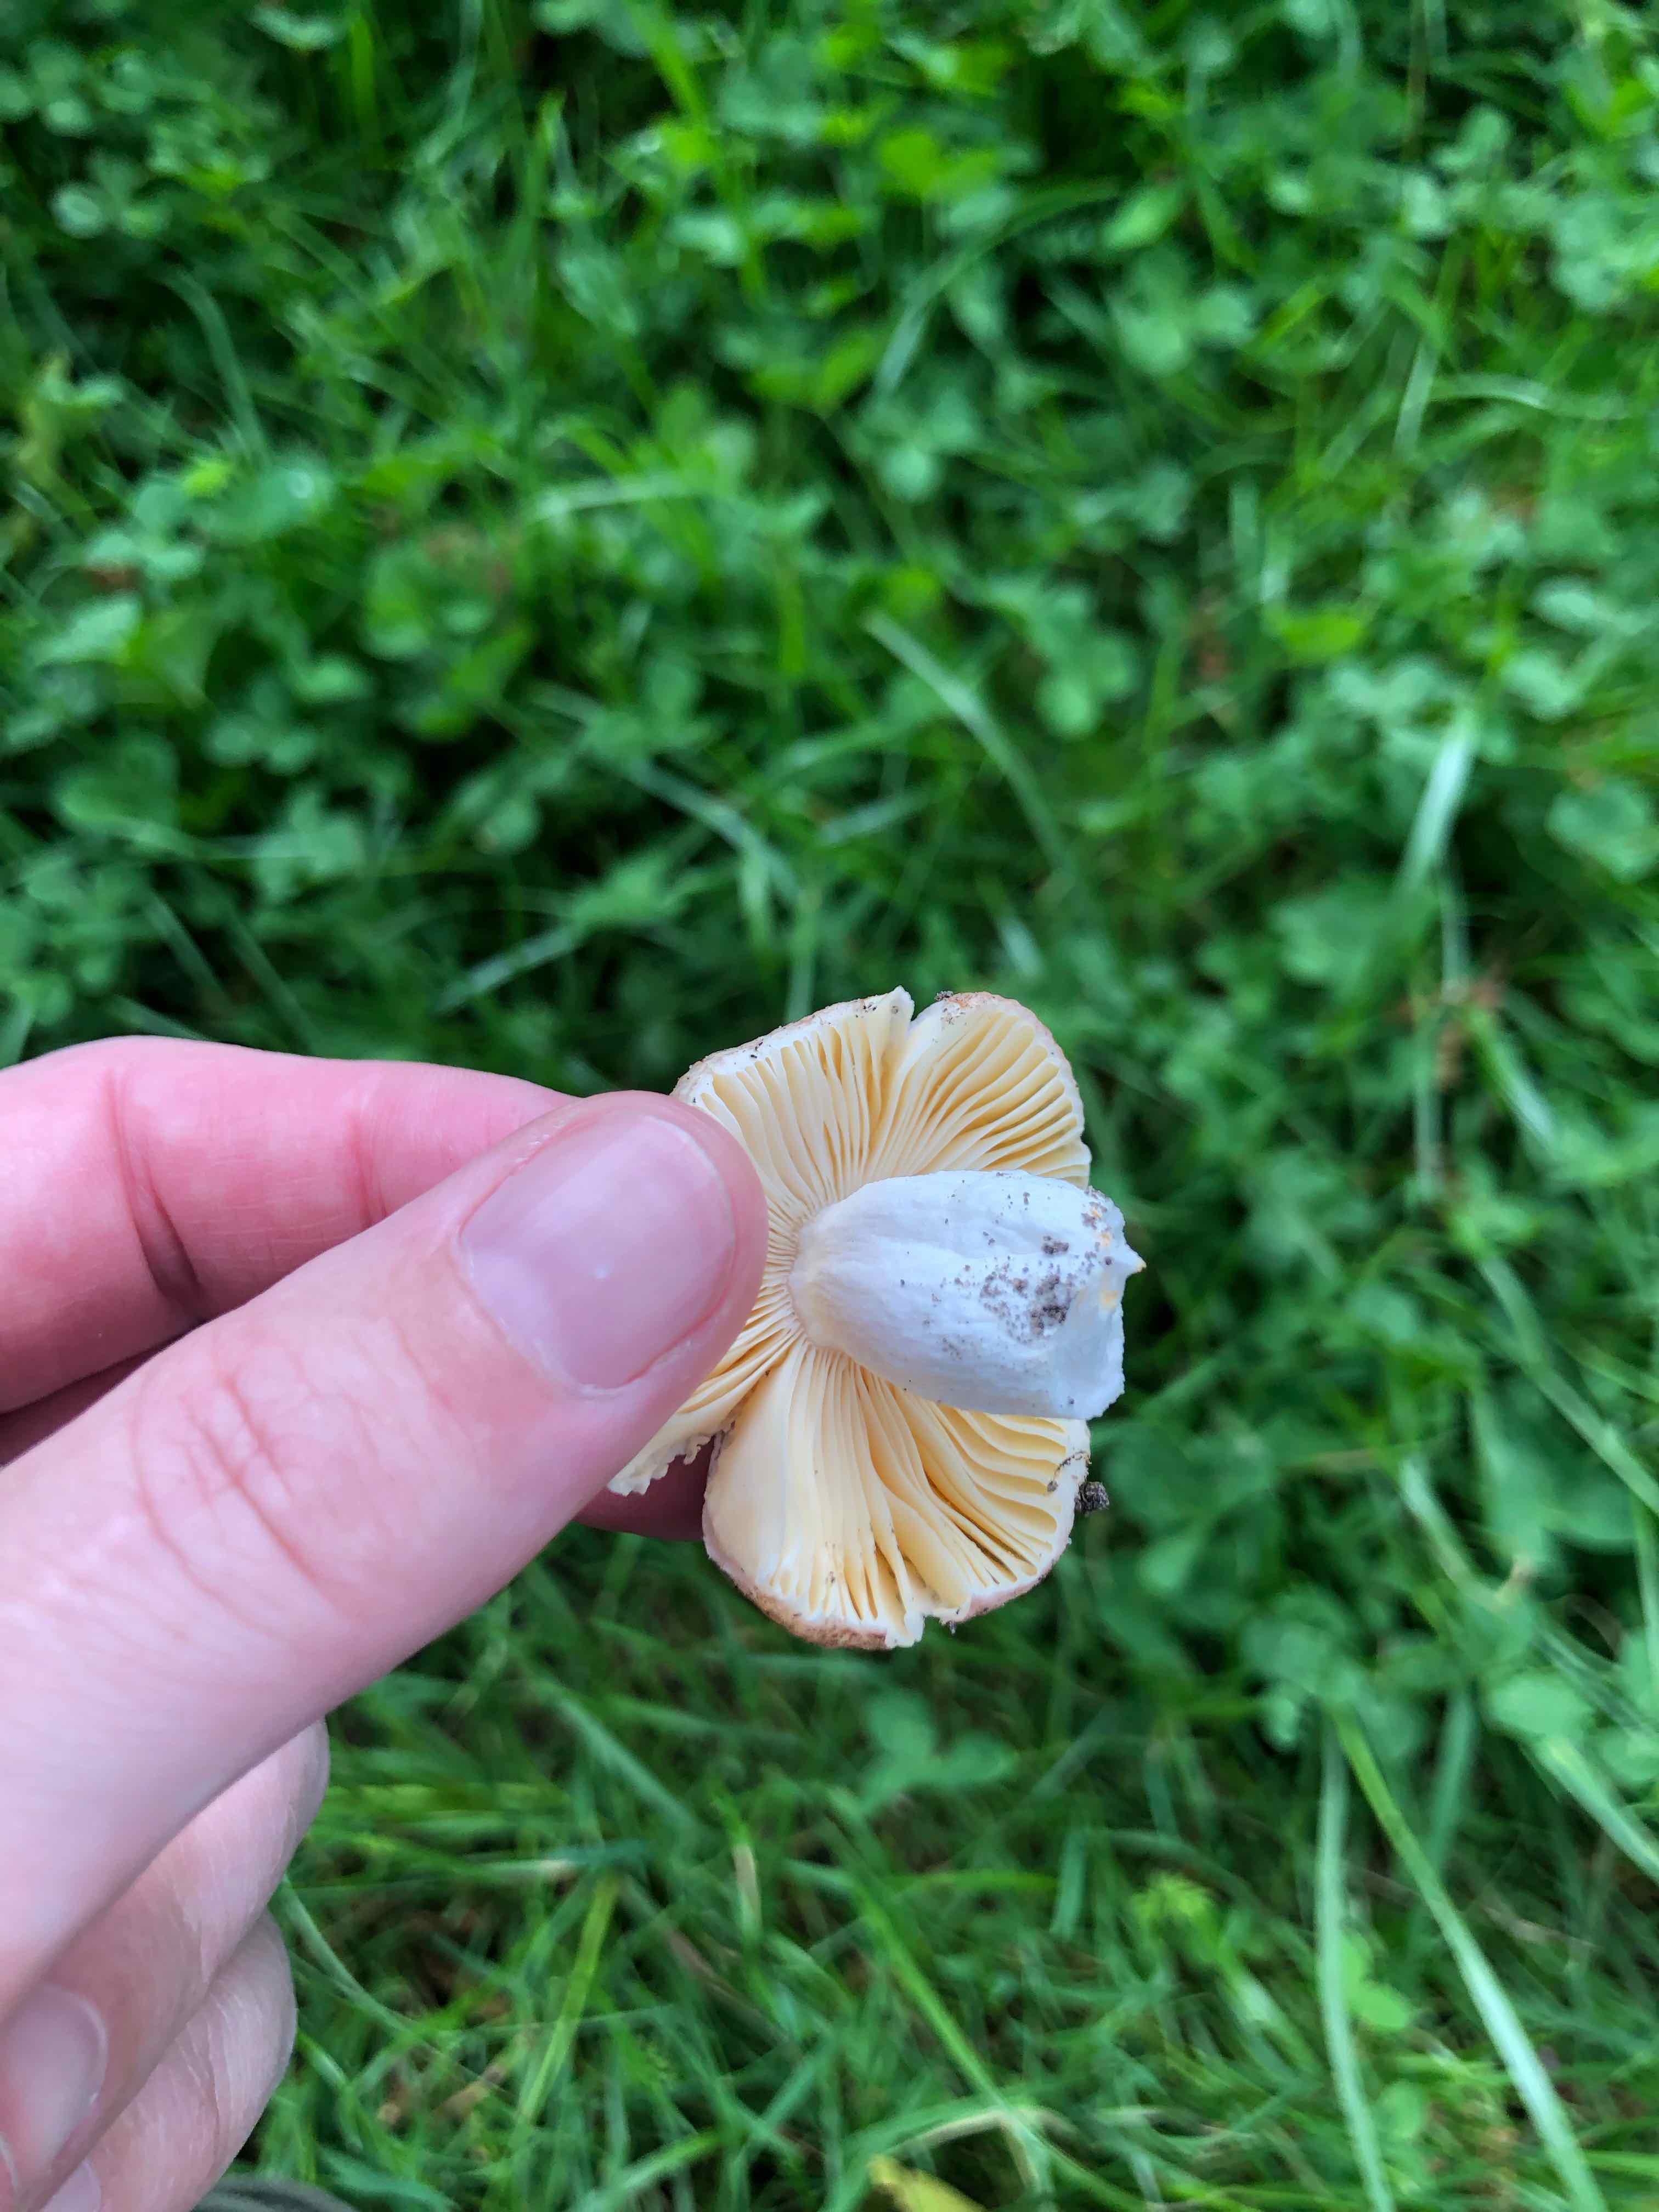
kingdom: Fungi
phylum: Basidiomycota
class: Agaricomycetes
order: Russulales
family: Russulaceae
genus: Russula
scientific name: Russula odorata
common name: duft-skørhat
